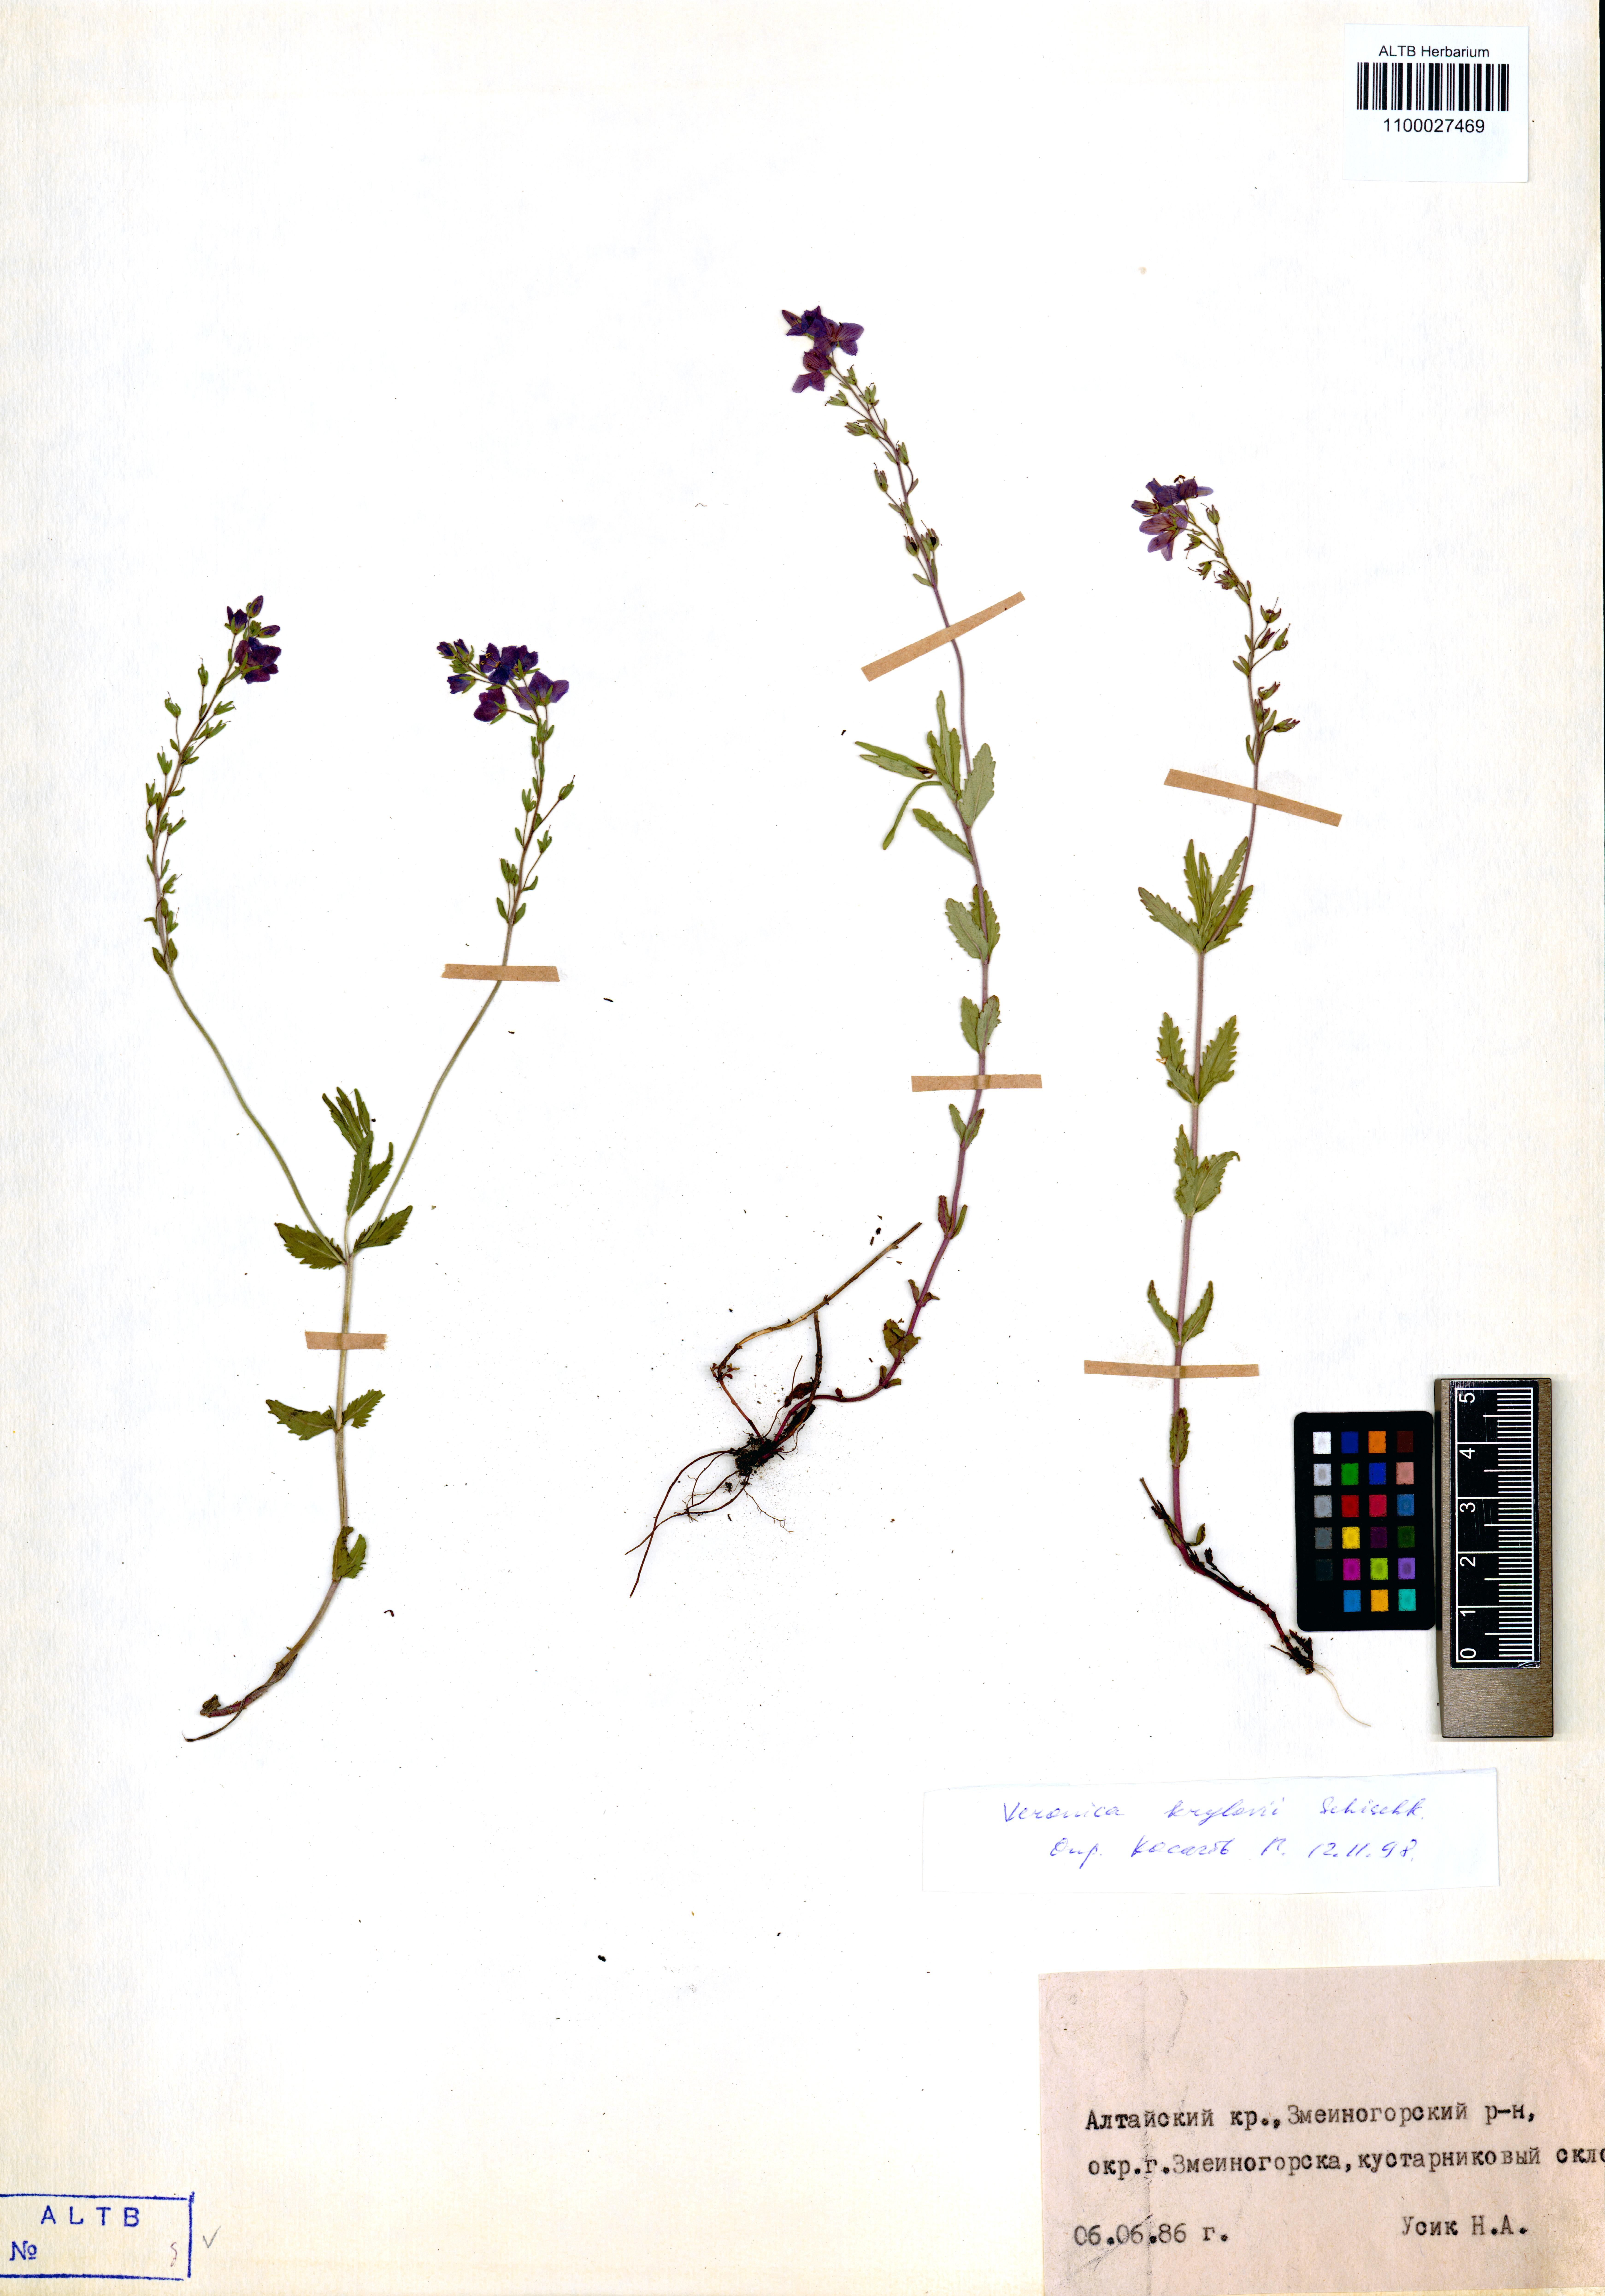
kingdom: Plantae
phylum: Tracheophyta
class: Magnoliopsida
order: Lamiales
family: Plantaginaceae
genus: Veronica
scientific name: Veronica krylovii
